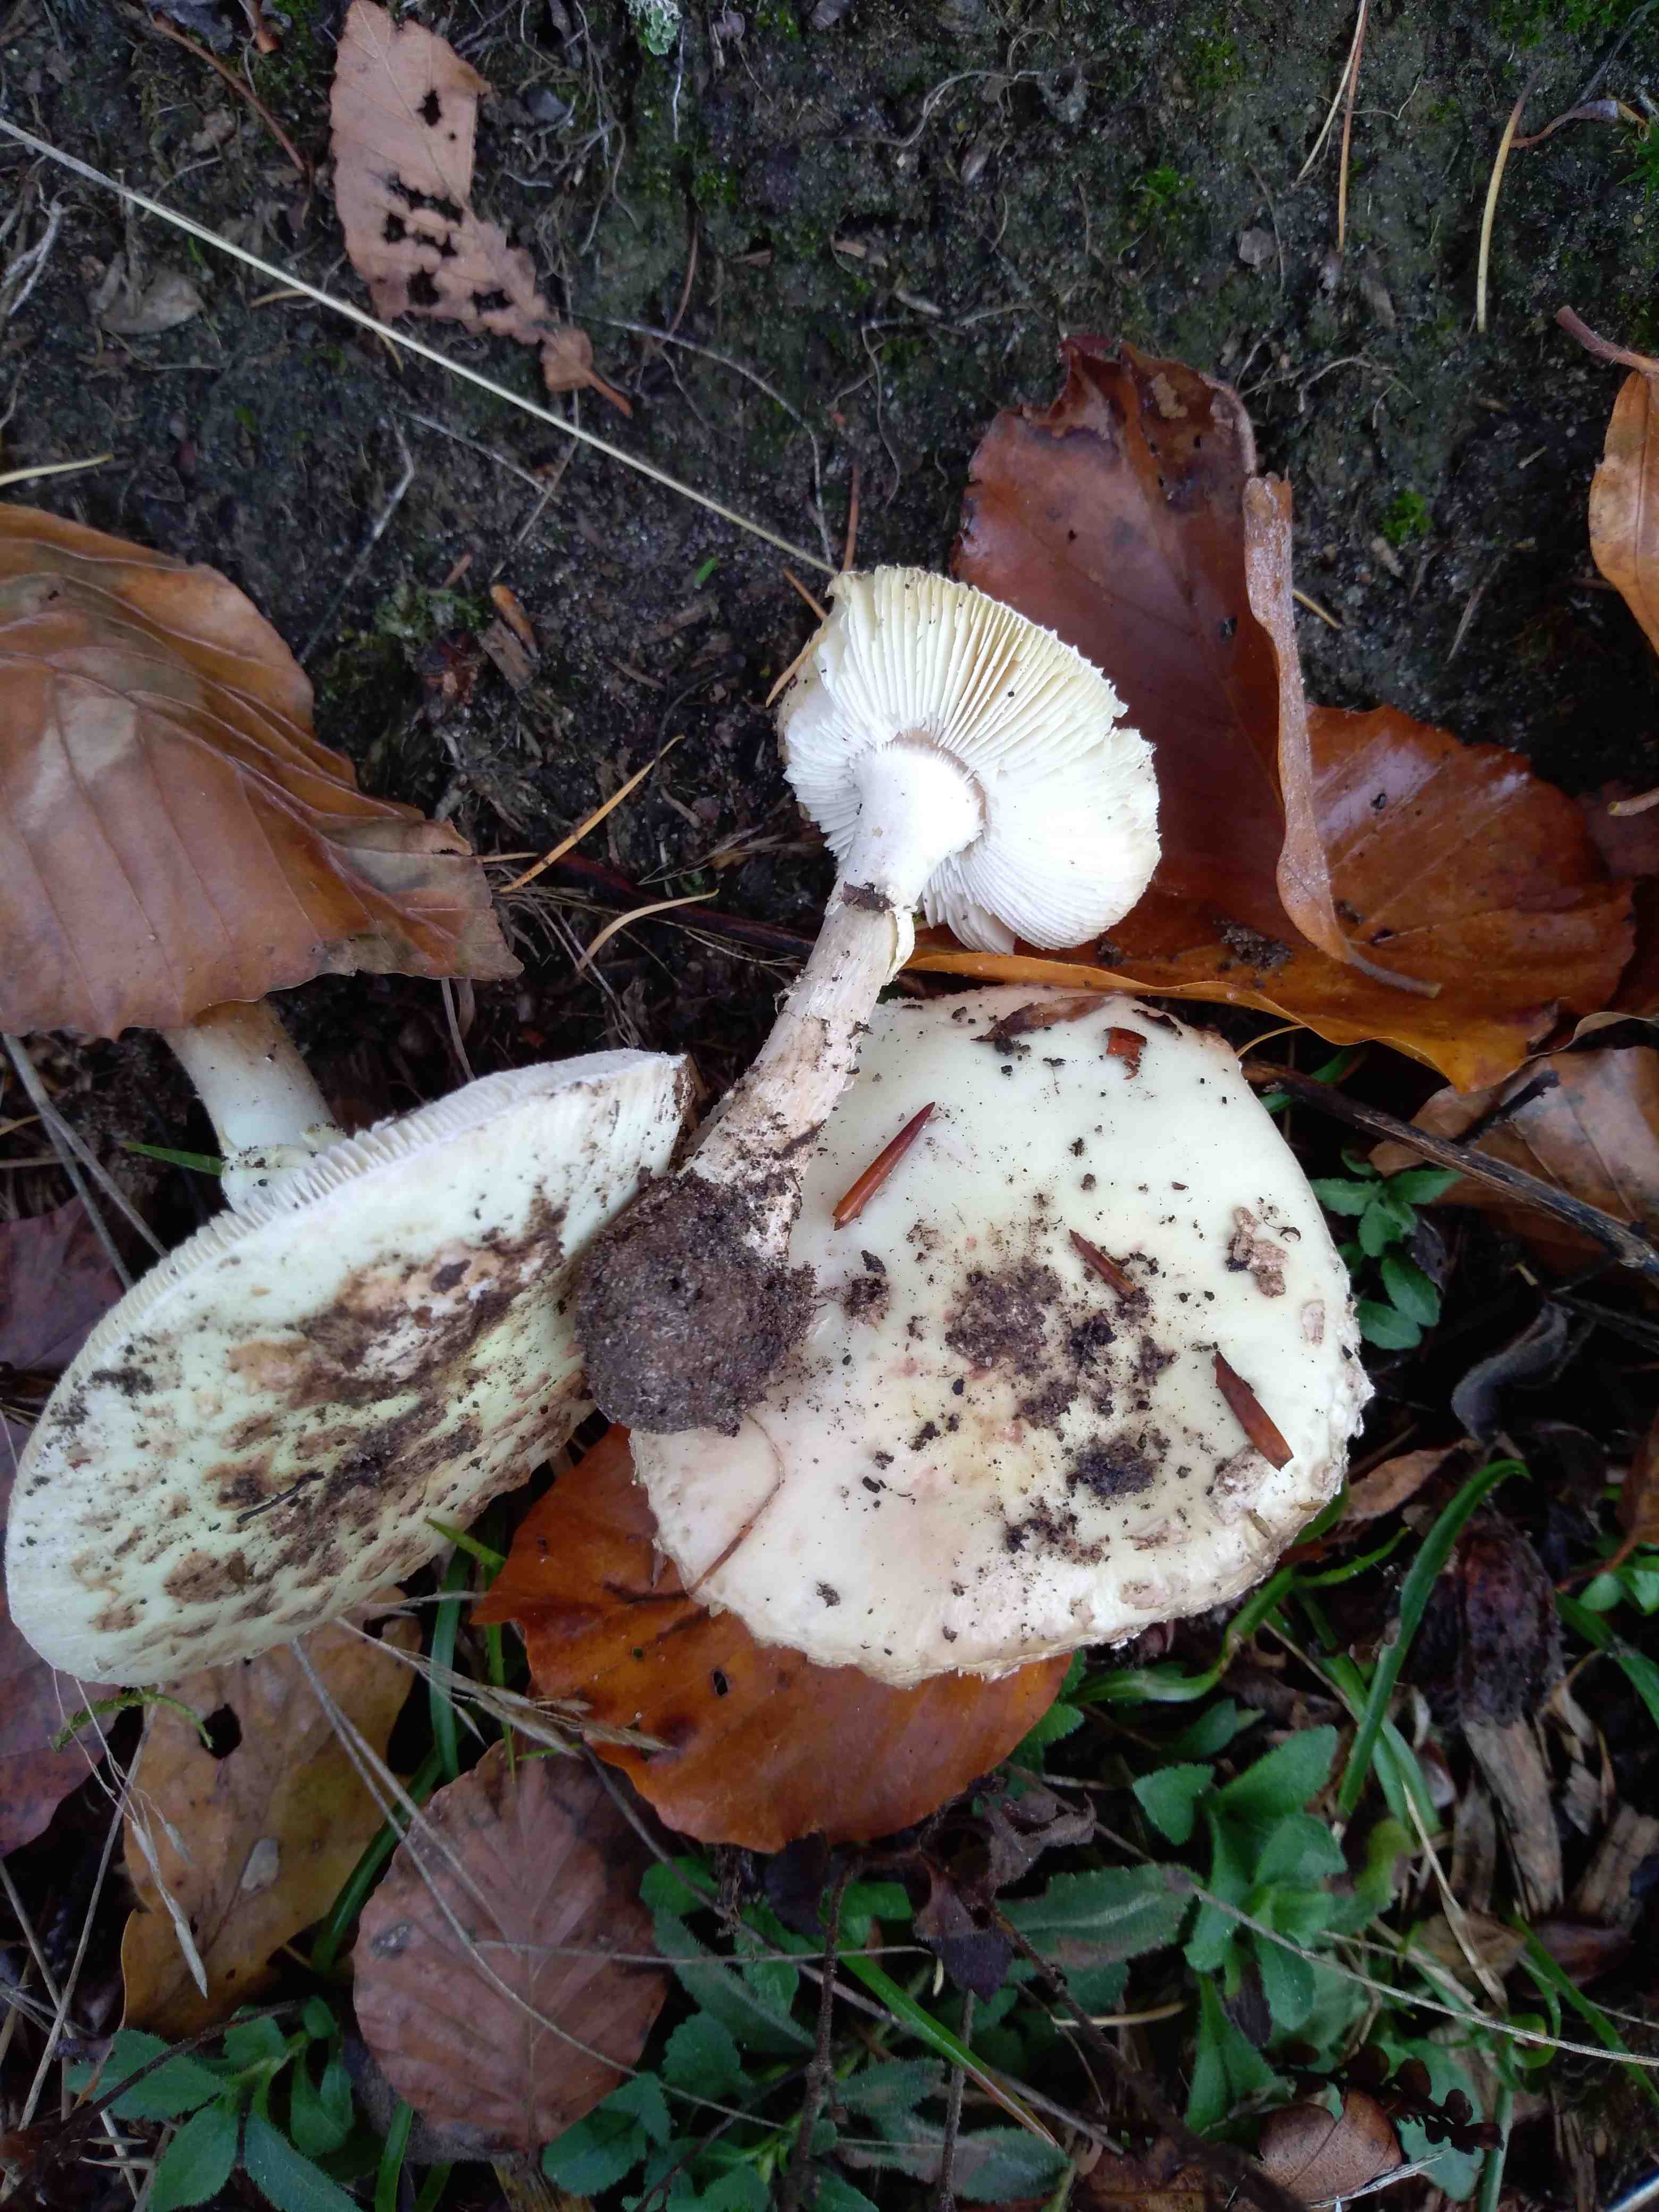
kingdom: Fungi
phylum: Basidiomycota
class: Agaricomycetes
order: Agaricales
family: Amanitaceae
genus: Amanita
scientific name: Amanita citrina
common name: kugleknoldet fluesvamp
